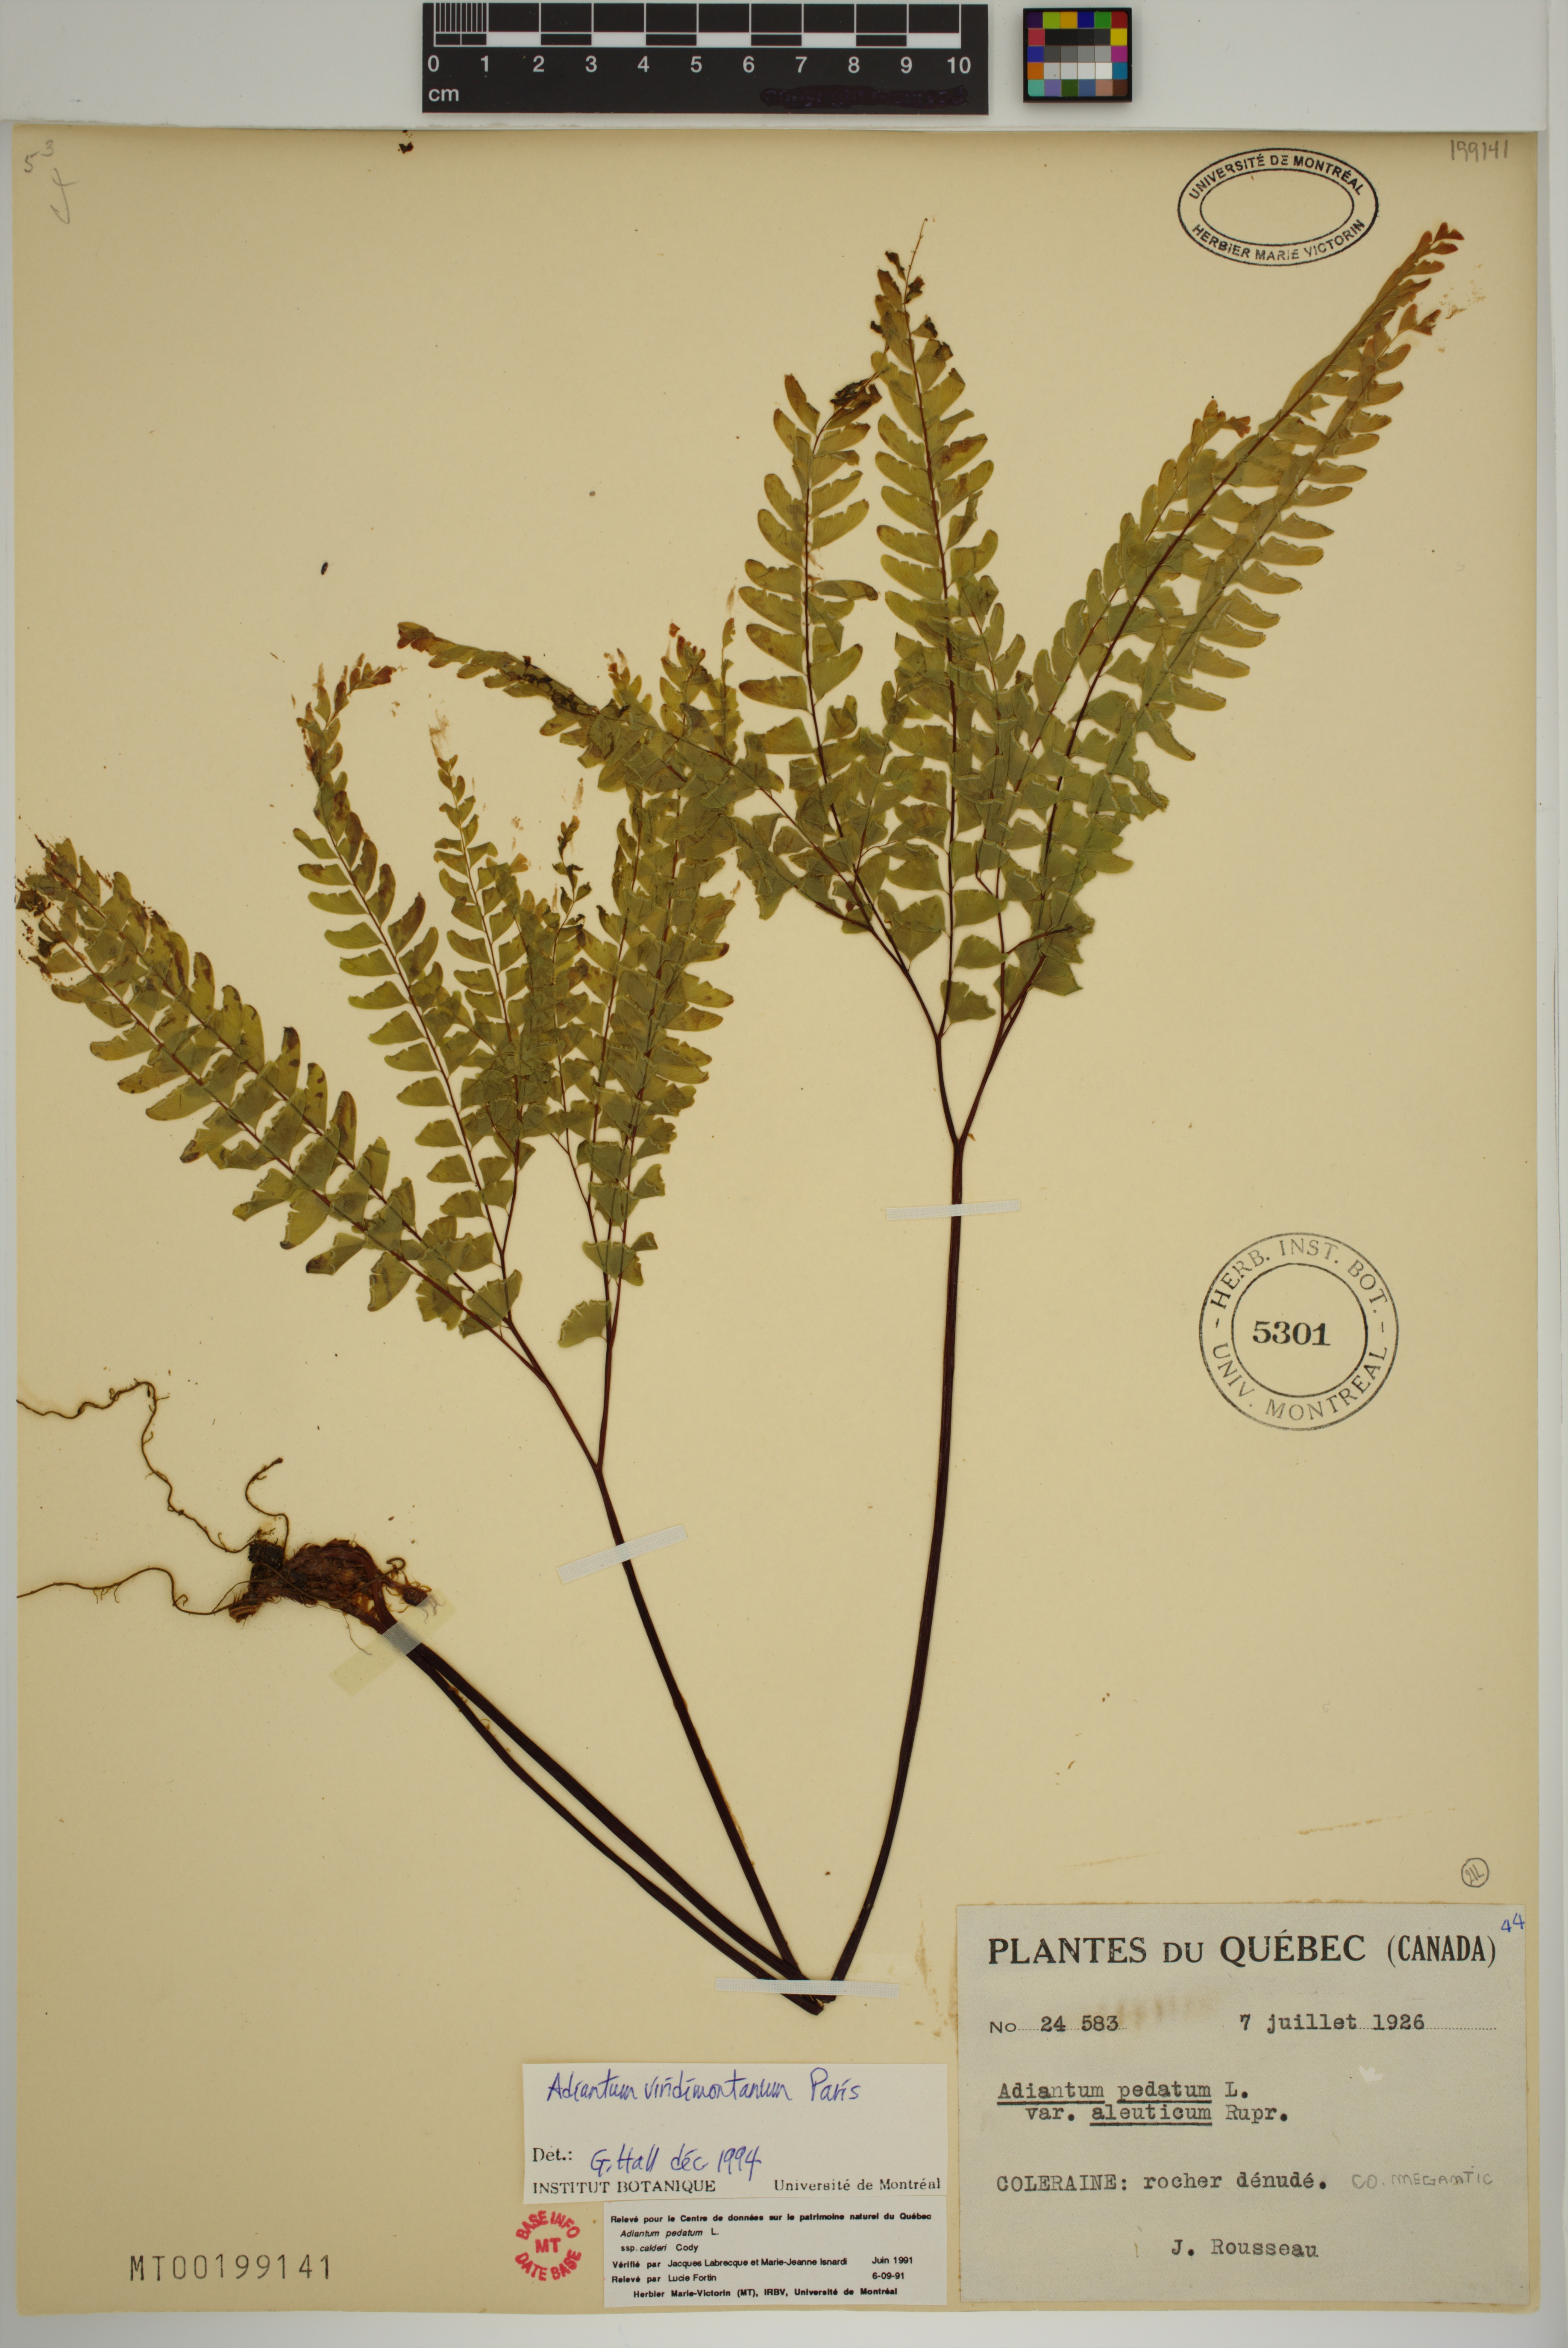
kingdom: Plantae
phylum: Tracheophyta
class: Polypodiopsida
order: Polypodiales
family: Pteridaceae
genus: Adiantum
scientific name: Adiantum viridimontanum
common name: Green mountain maidenhair
